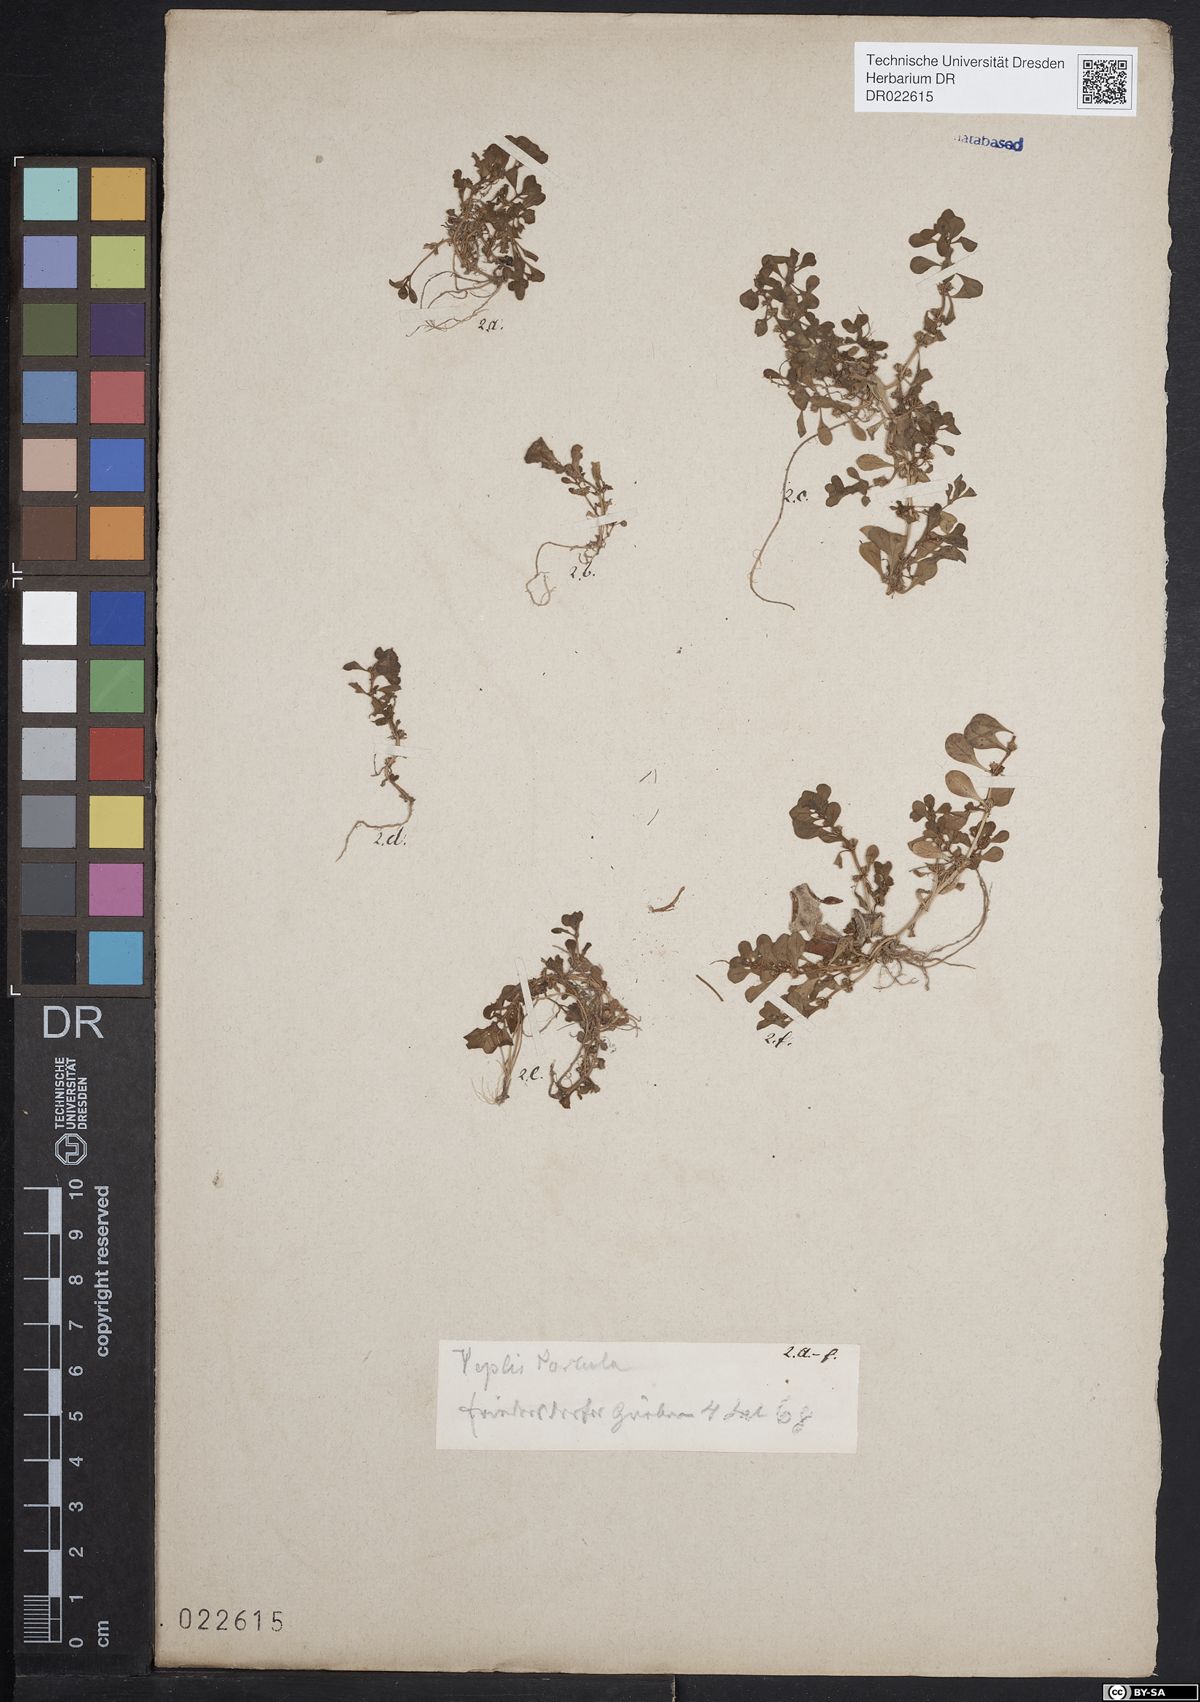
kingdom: Plantae
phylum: Tracheophyta
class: Magnoliopsida
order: Myrtales
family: Lythraceae
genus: Lythrum
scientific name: Lythrum portula
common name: Water purslane
